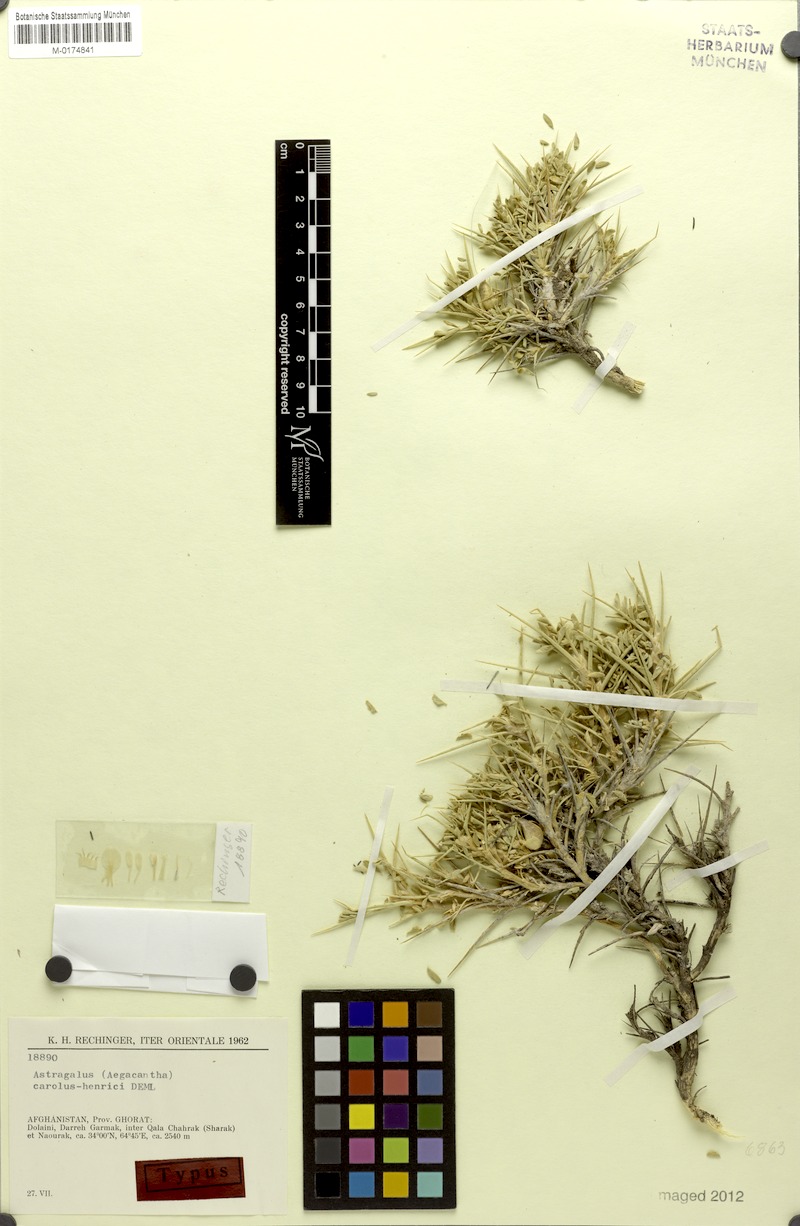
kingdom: Plantae
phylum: Tracheophyta
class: Magnoliopsida
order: Fabales
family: Fabaceae
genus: Astragalus
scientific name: Astragalus caroli-henrici
